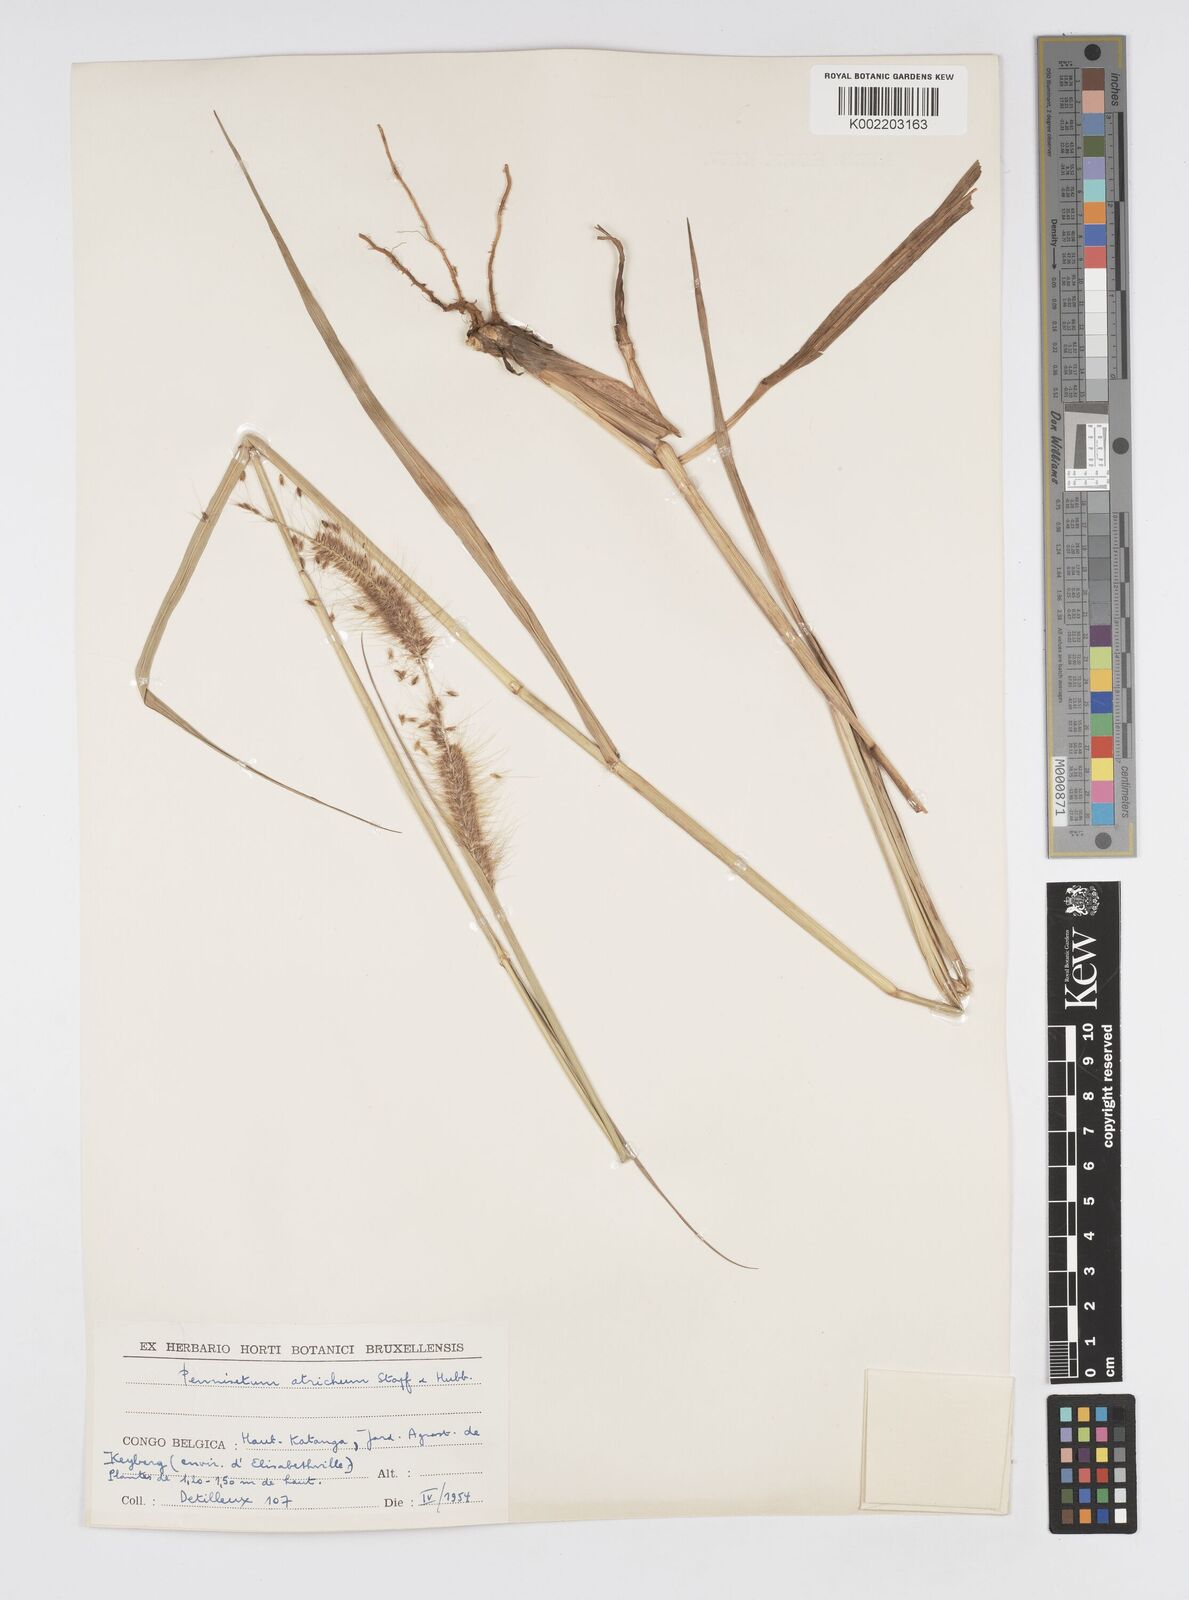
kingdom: Plantae
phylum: Tracheophyta
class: Liliopsida
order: Poales
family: Poaceae
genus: Cenchrus
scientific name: Cenchrus setosus
